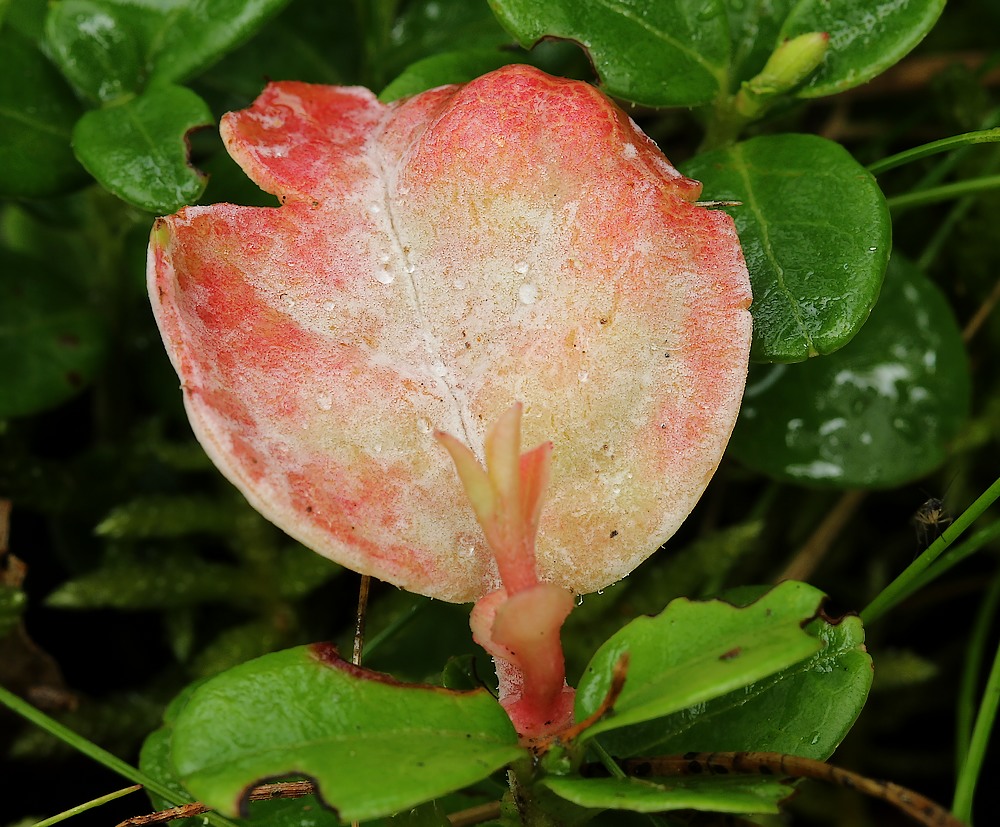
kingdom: Fungi
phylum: Basidiomycota
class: Exobasidiomycetes
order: Exobasidiales
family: Exobasidiaceae
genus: Exobasidium
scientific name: Exobasidium vaccinii
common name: tyttebærblad-bøllesvamp
